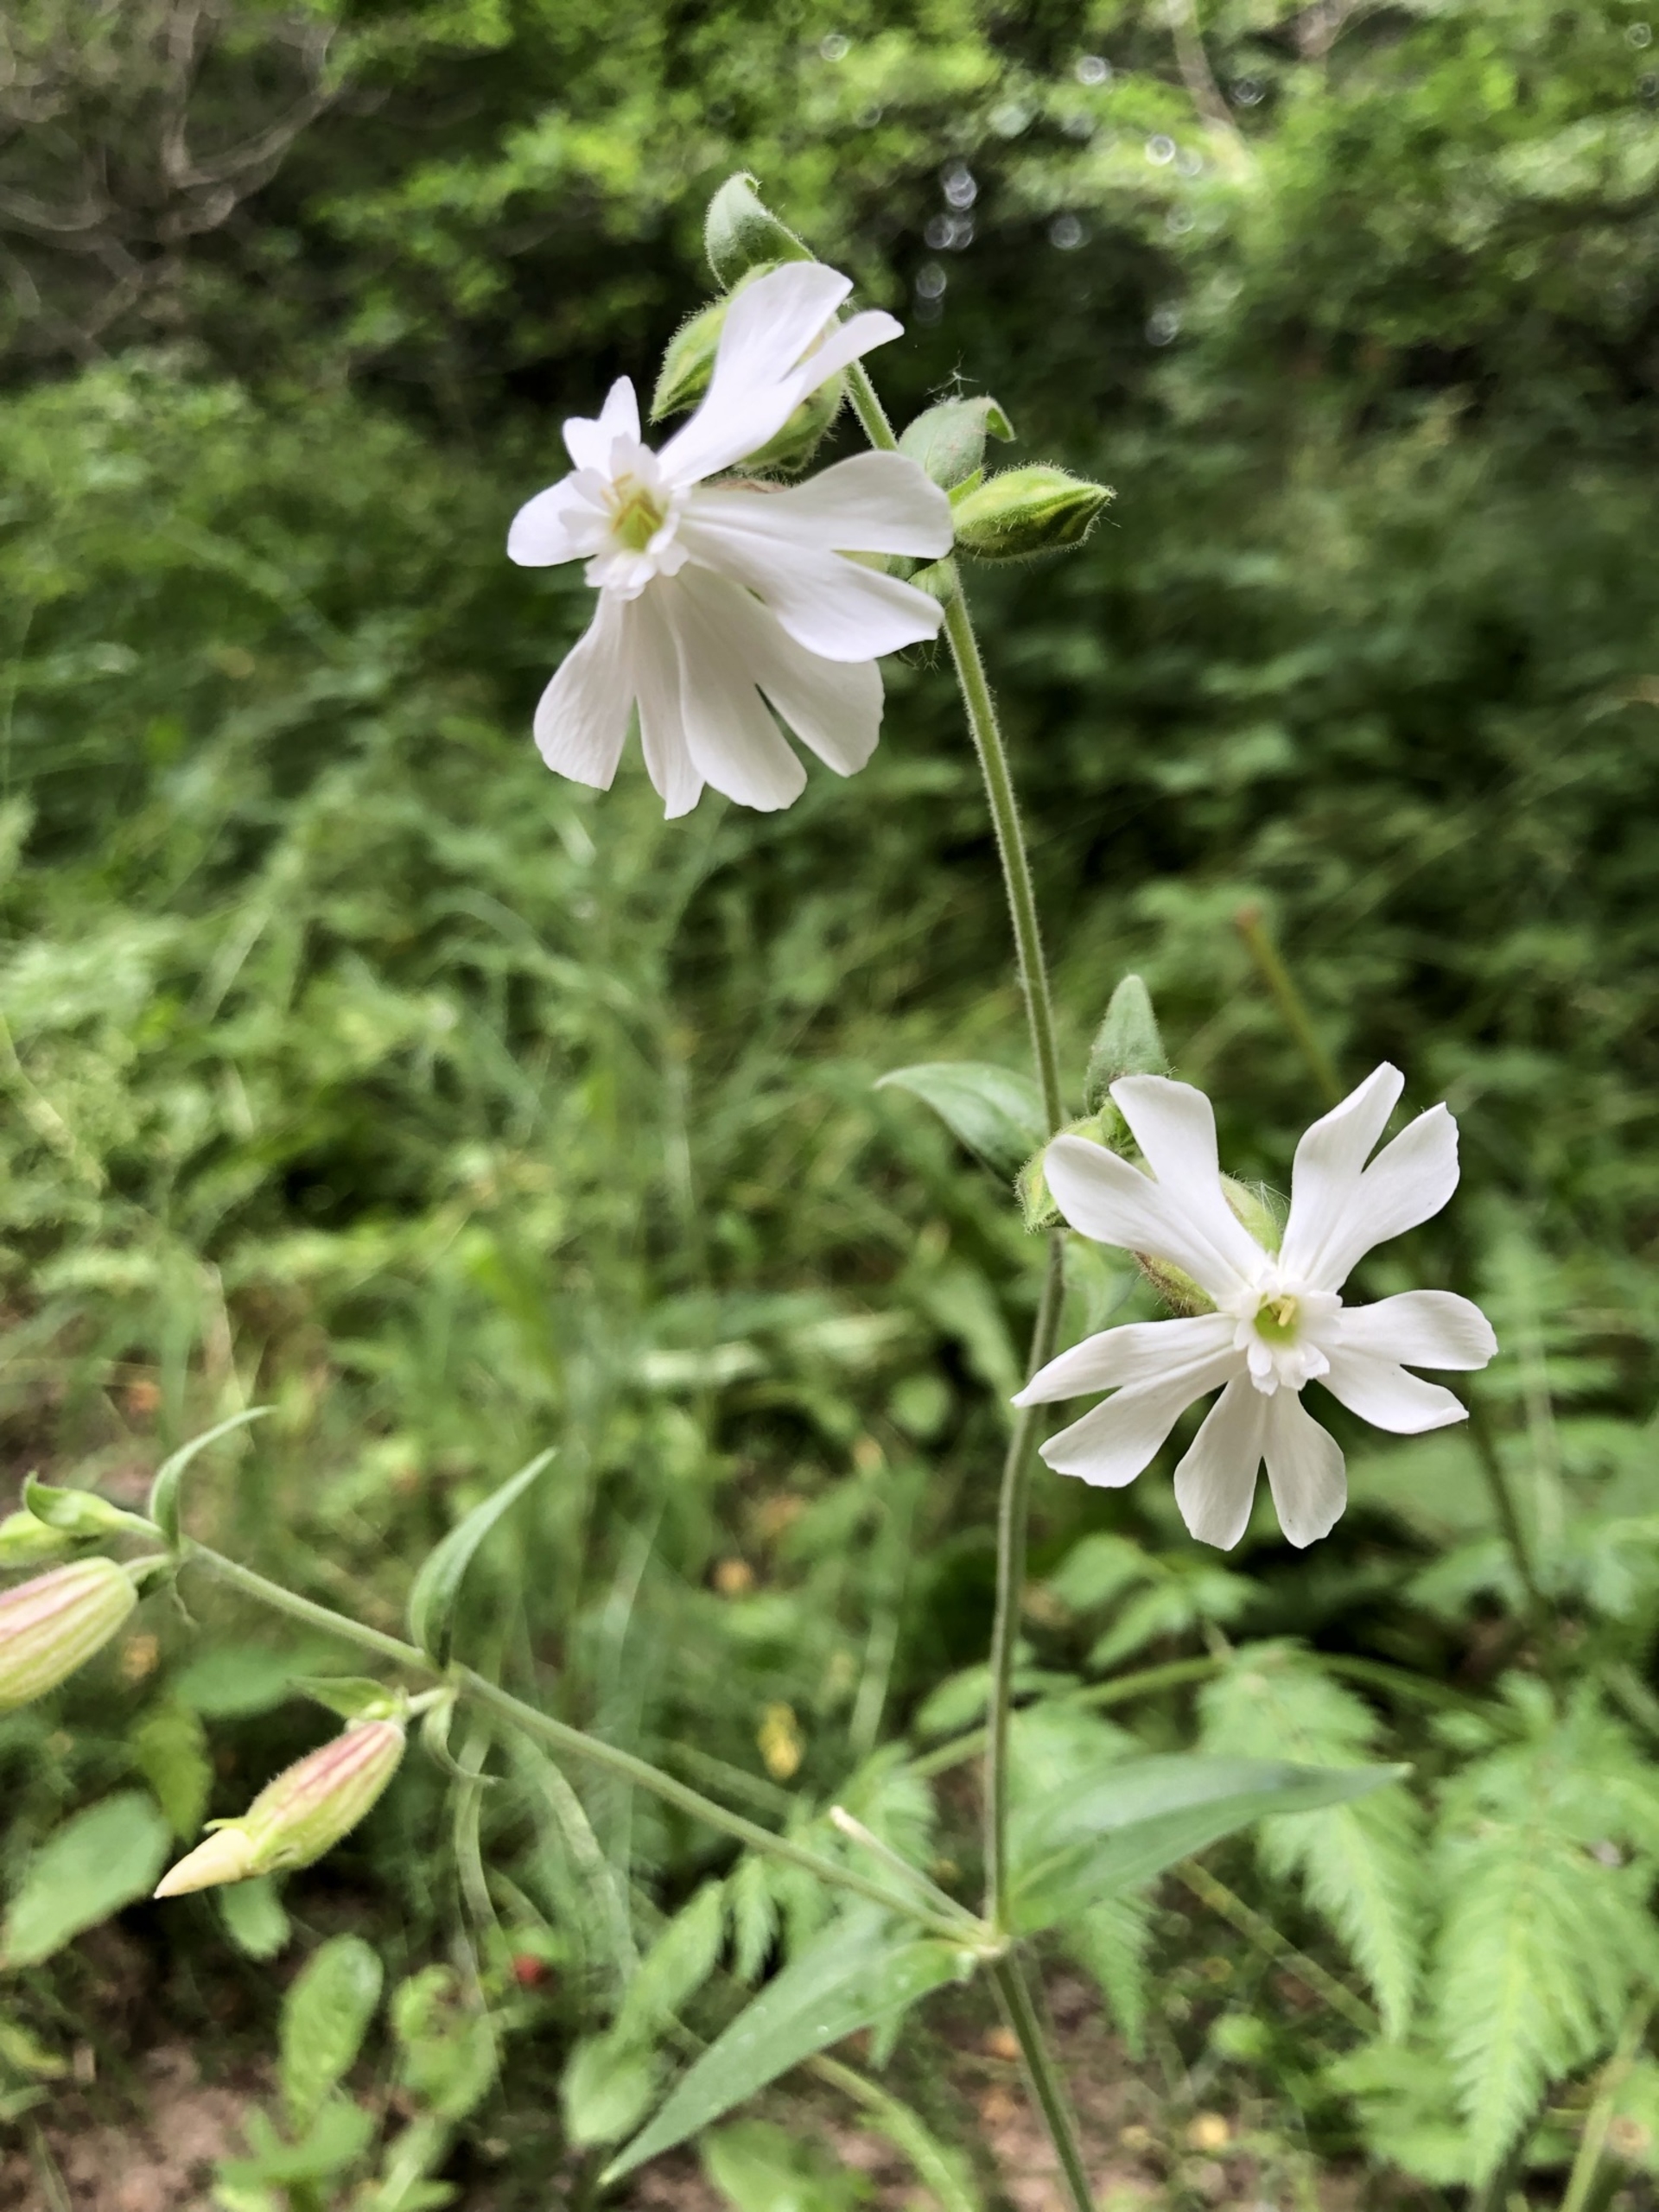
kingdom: Plantae
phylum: Tracheophyta
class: Magnoliopsida
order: Caryophyllales
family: Caryophyllaceae
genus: Silene
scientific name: Silene latifolia
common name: Aftenpragtstjerne
